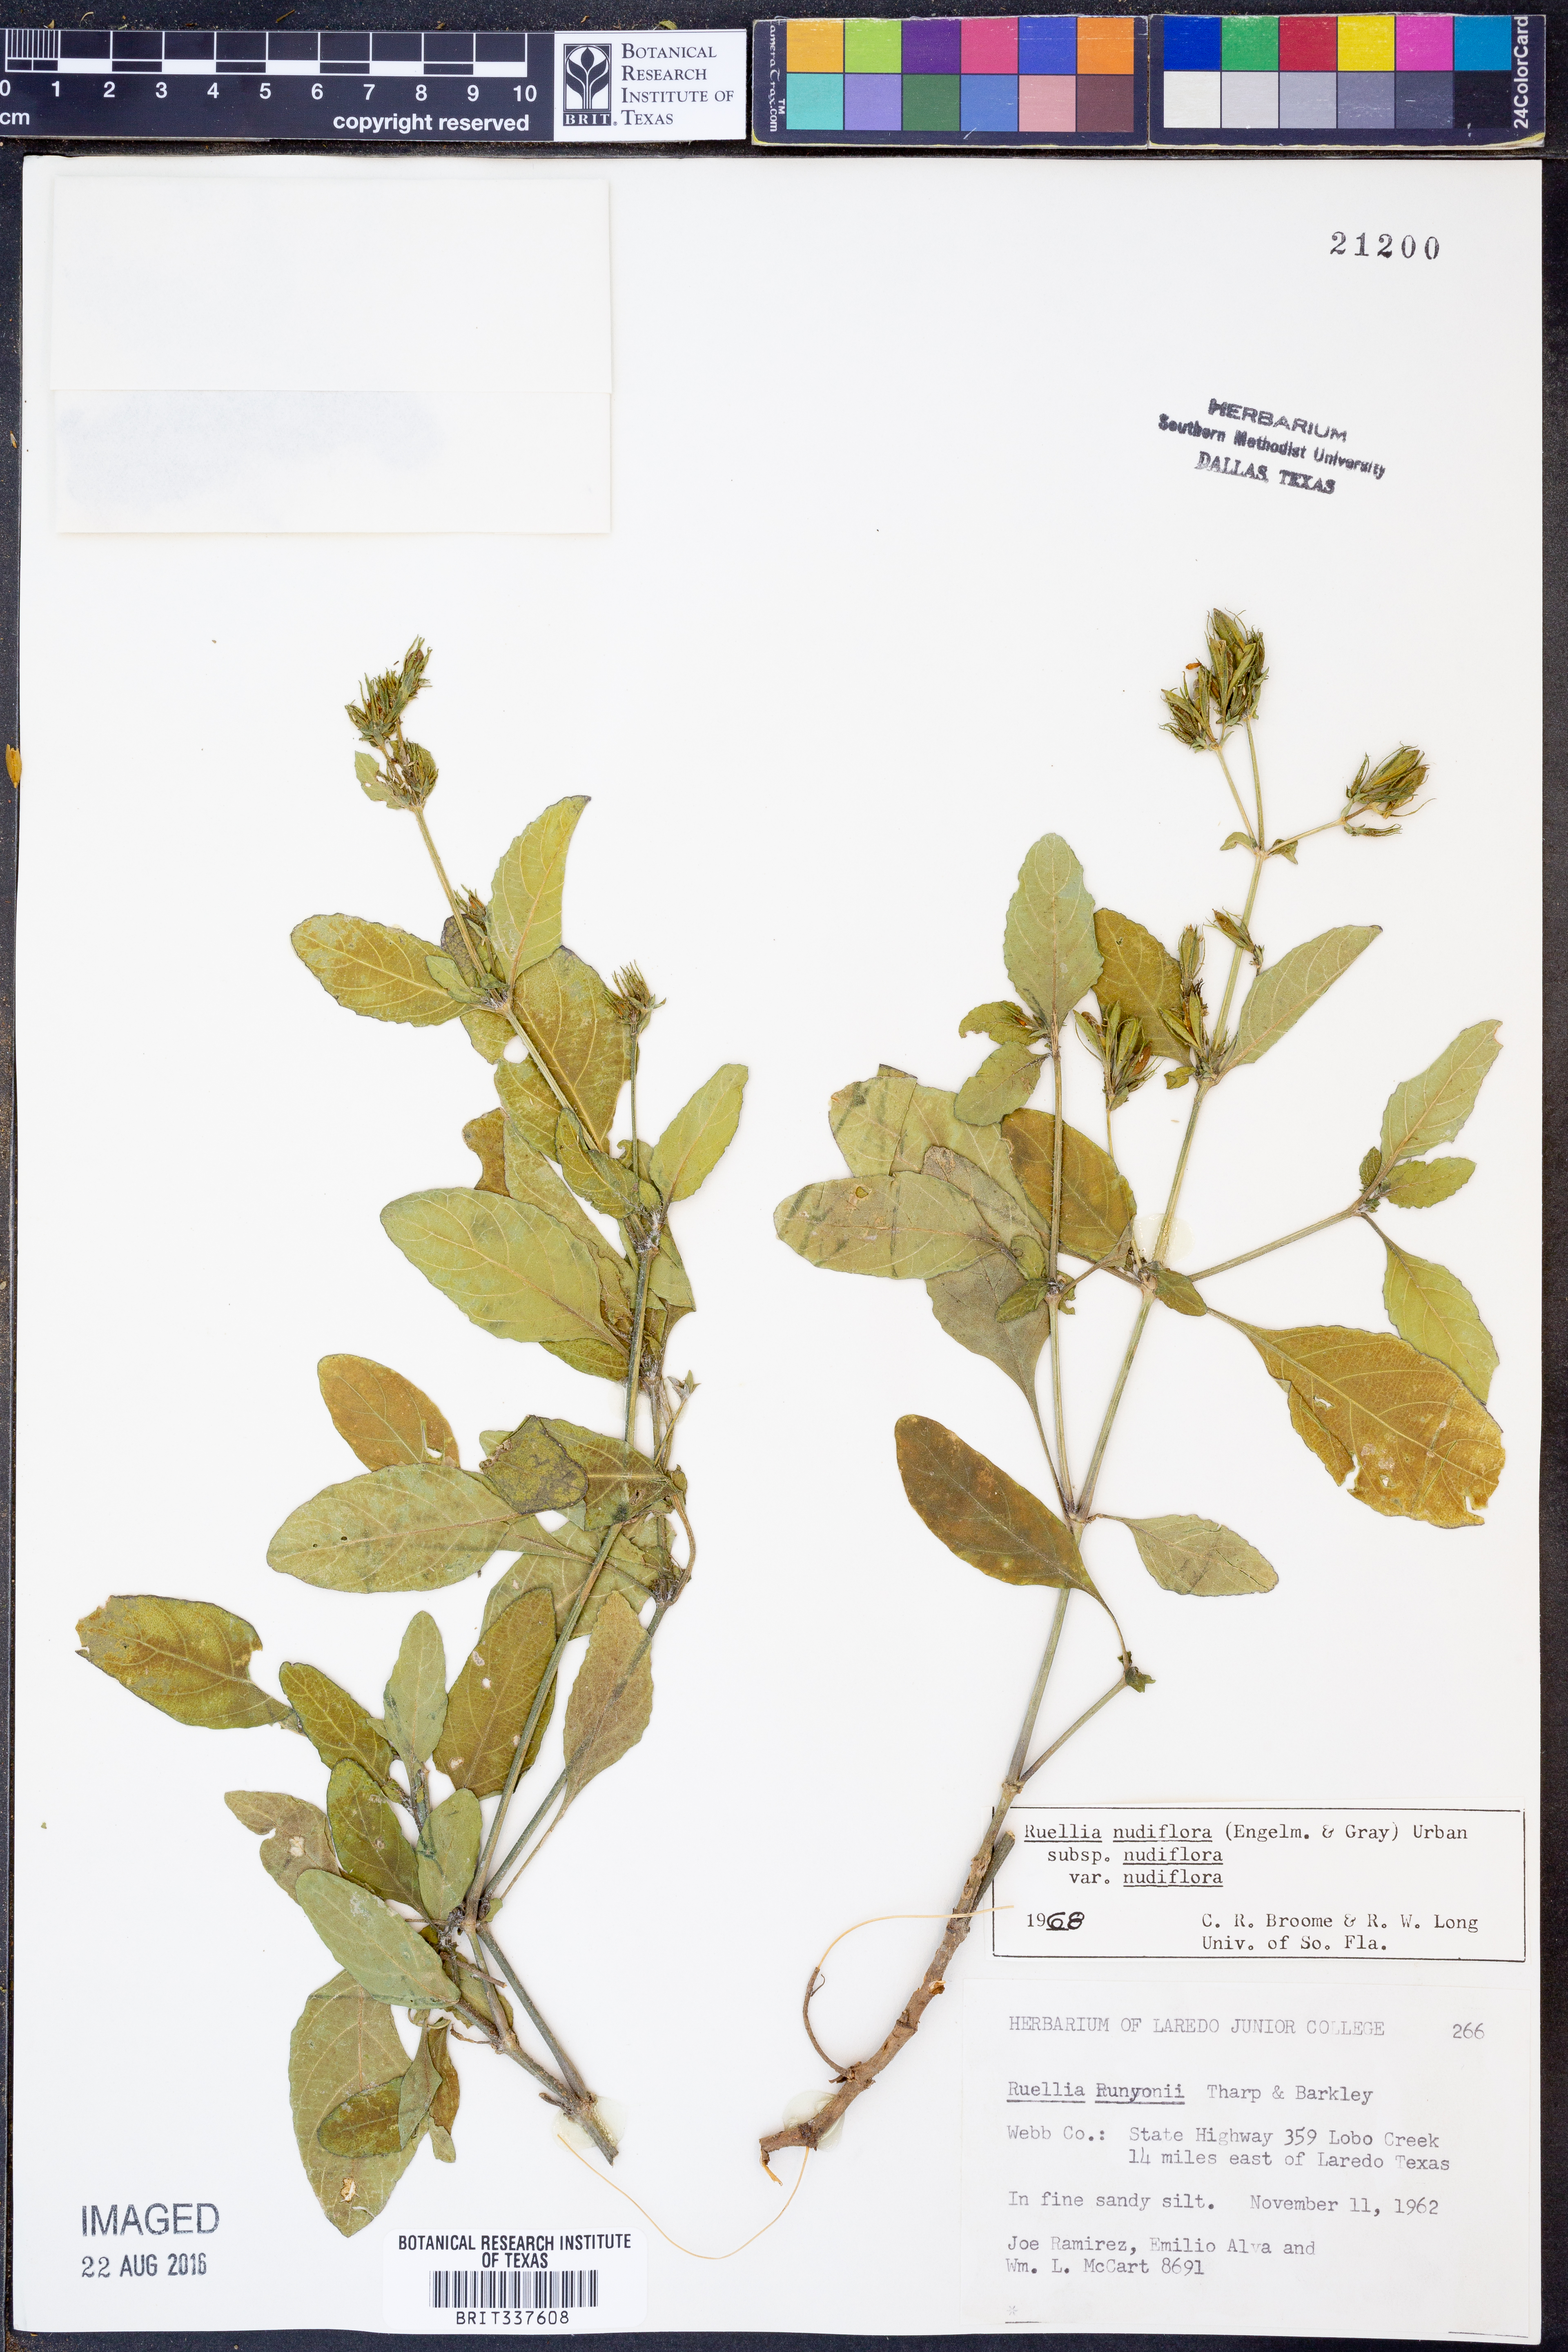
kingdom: Plantae
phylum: Tracheophyta
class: Magnoliopsida
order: Lamiales
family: Acanthaceae
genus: Ruellia
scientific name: Ruellia ciliatiflora
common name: Hairyflower wild petunia
